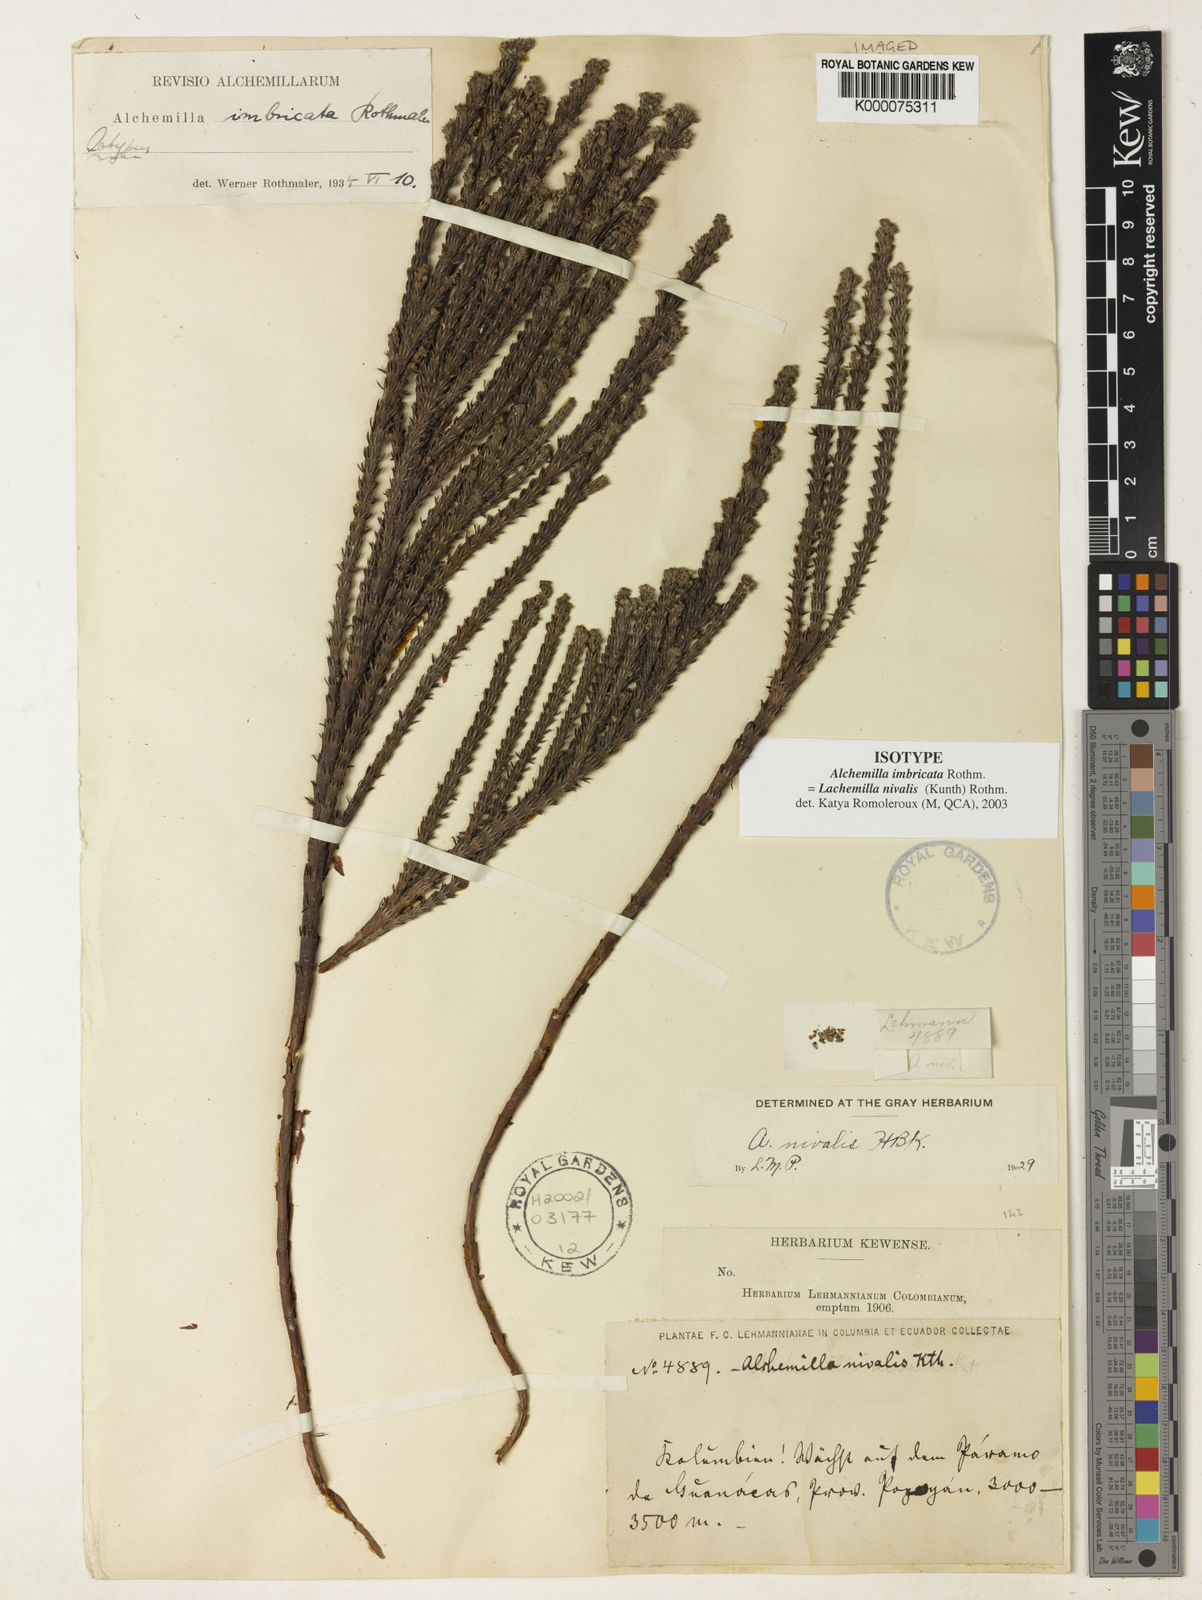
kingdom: Plantae
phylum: Tracheophyta
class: Magnoliopsida
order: Rosales
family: Rosaceae
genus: Lachemilla
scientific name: Lachemilla nivalis
